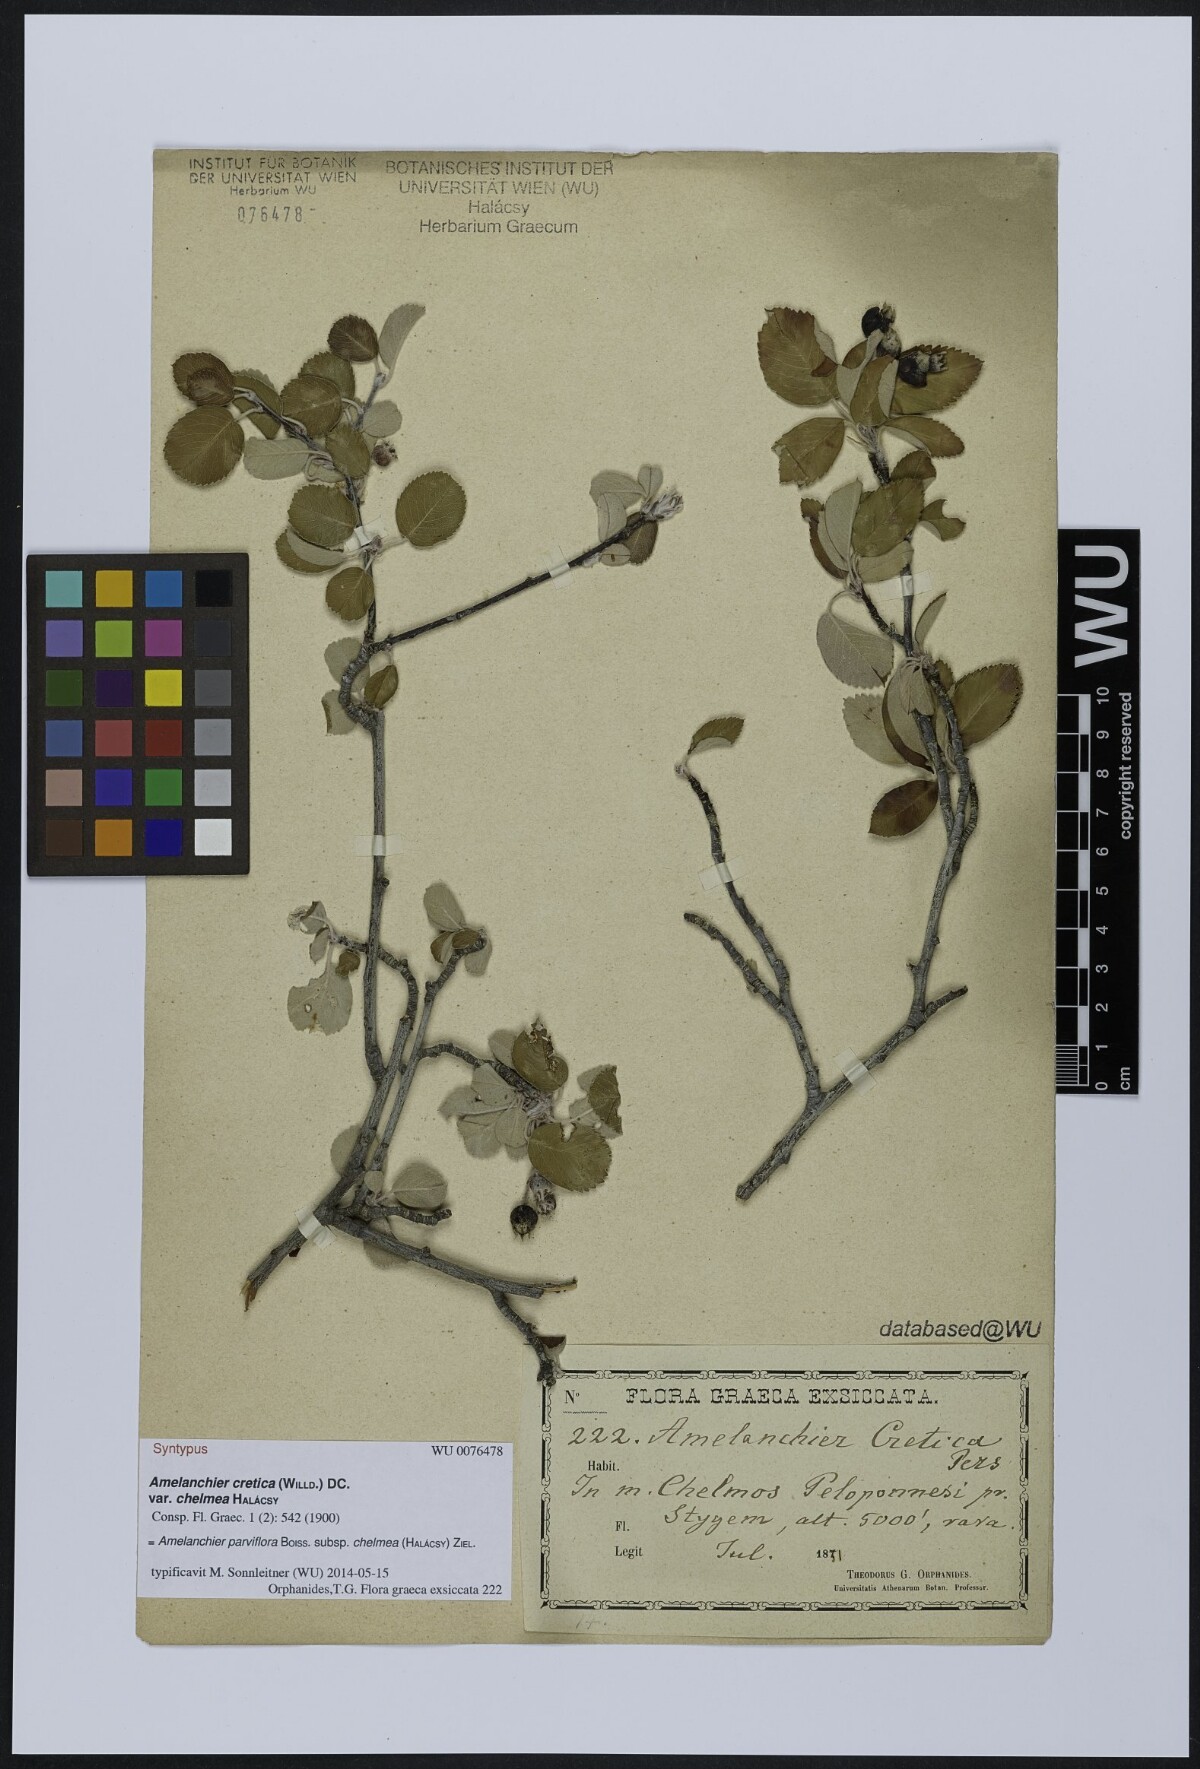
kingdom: Plantae
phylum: Tracheophyta
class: Magnoliopsida
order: Rosales
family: Rosaceae
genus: Amelanchier
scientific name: Amelanchier parviflora
